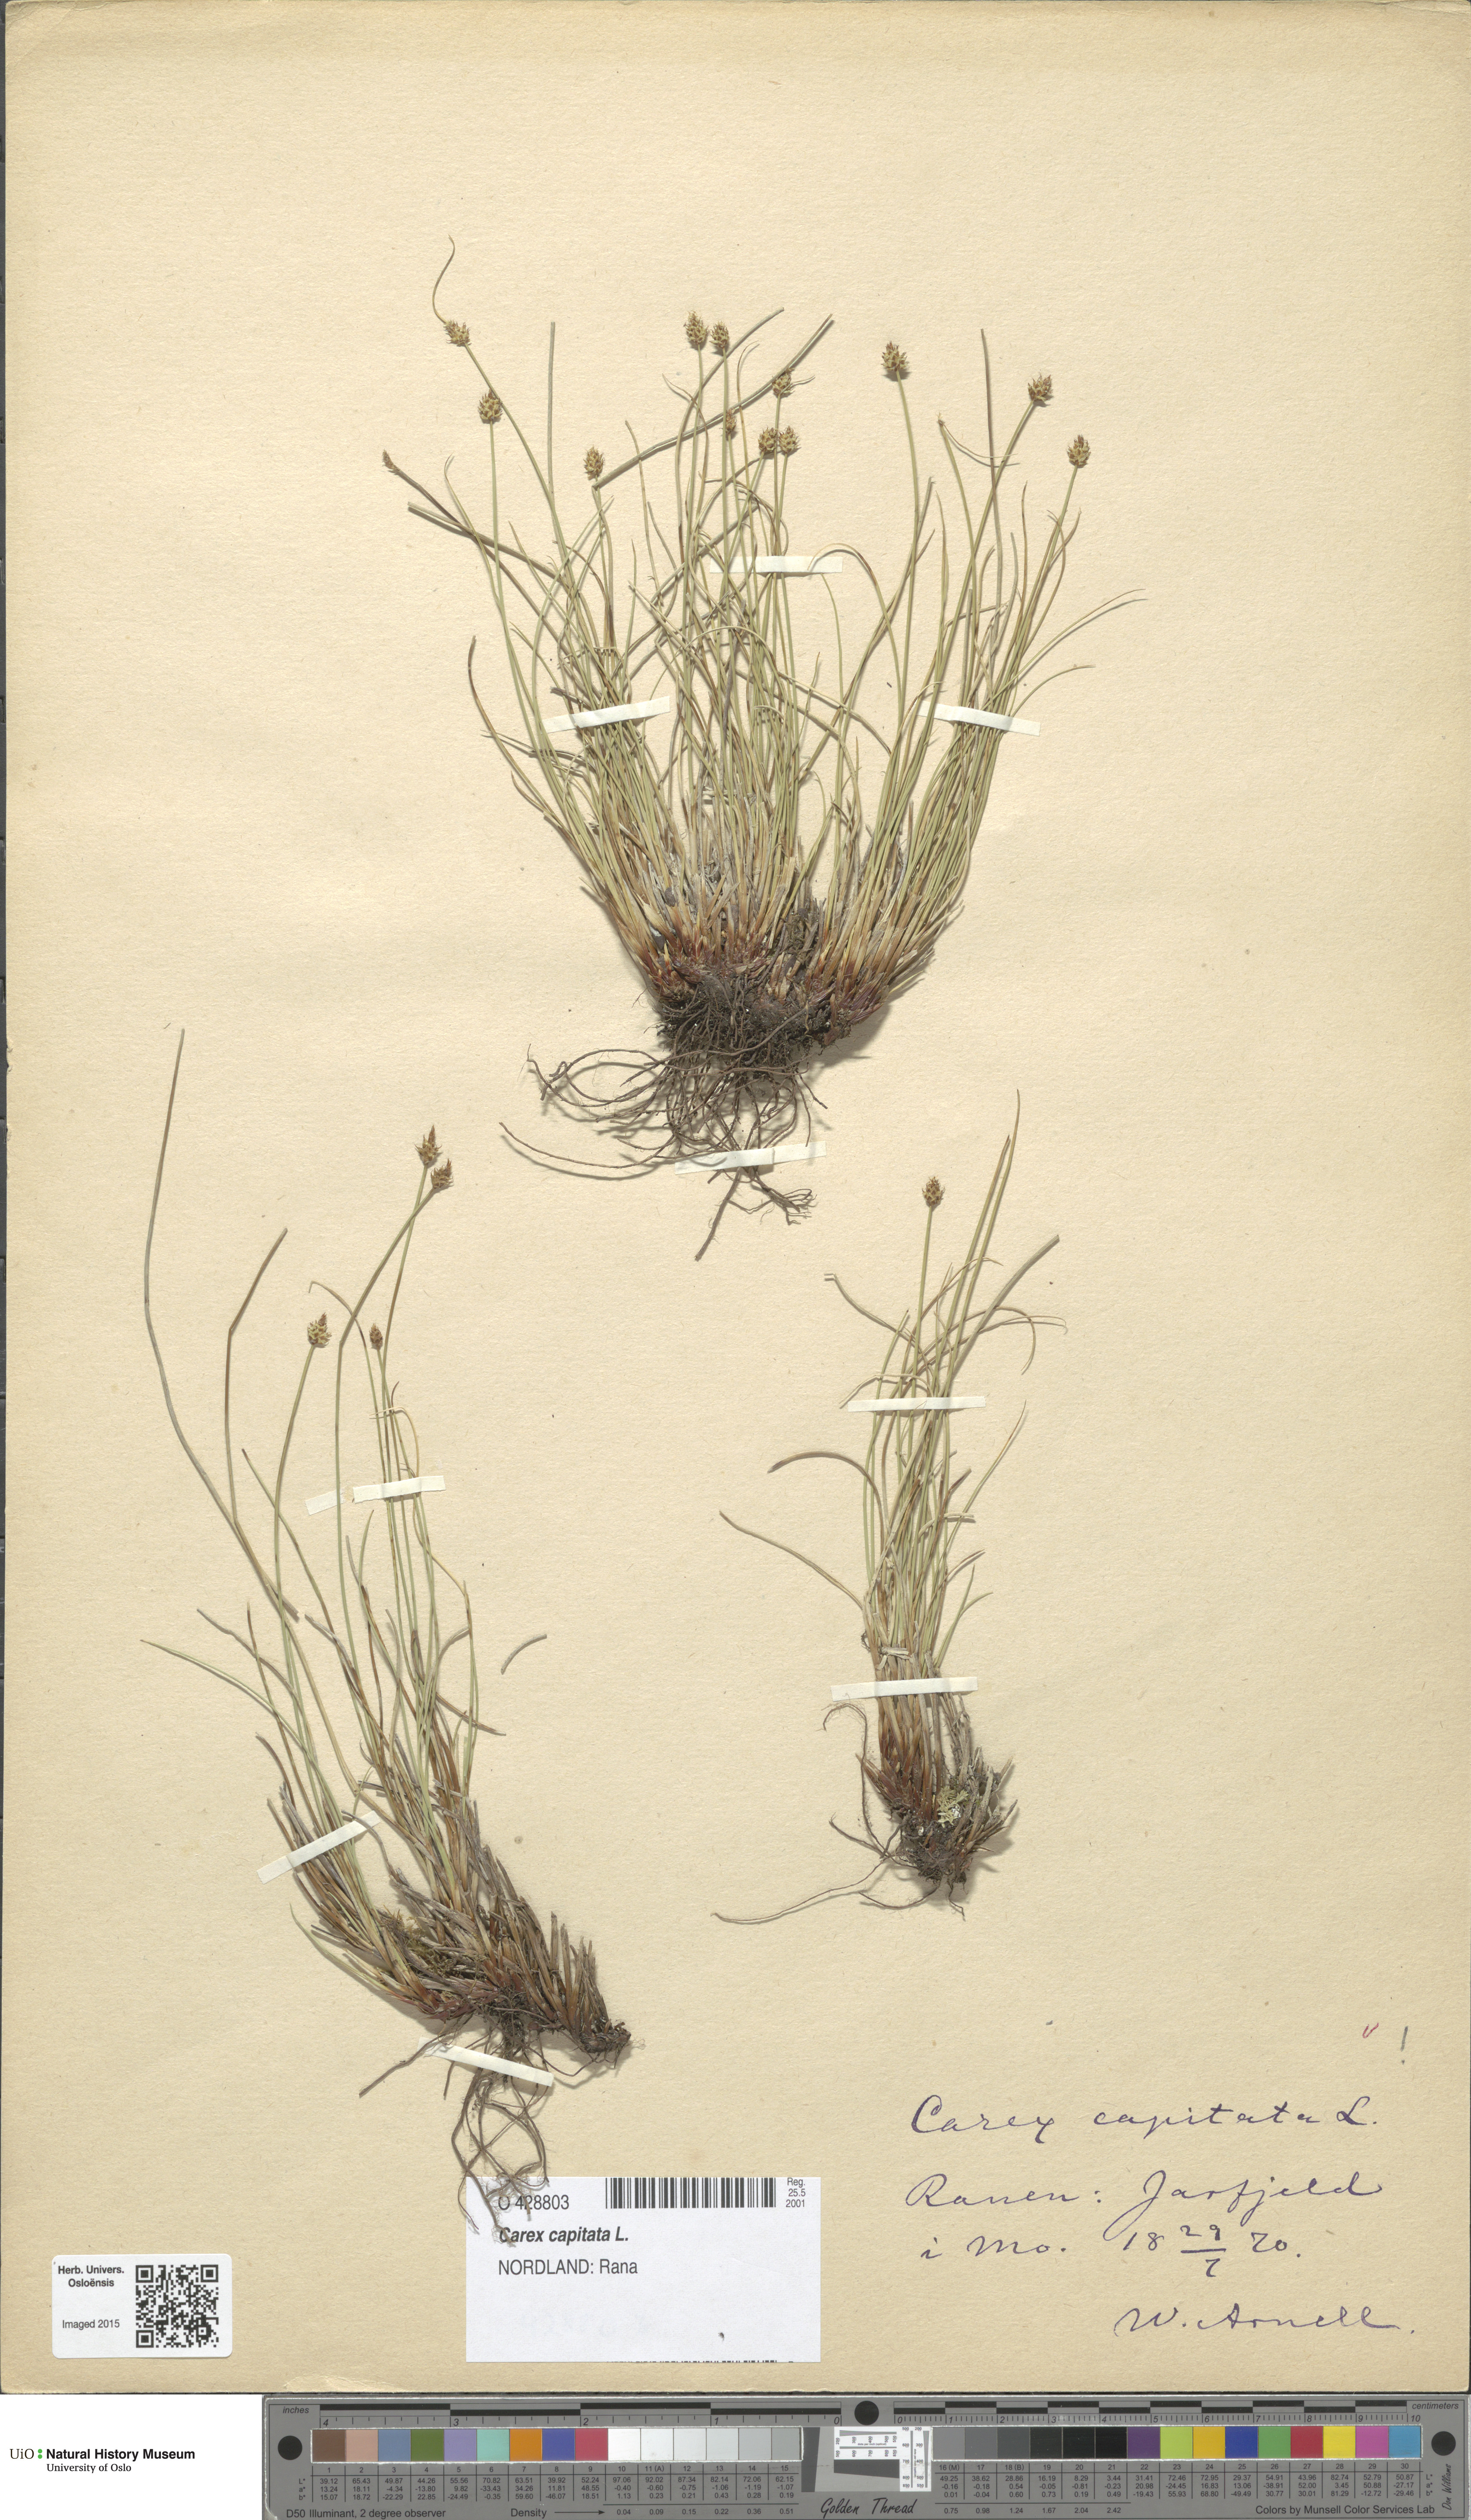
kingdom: Plantae
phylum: Tracheophyta
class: Liliopsida
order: Poales
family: Cyperaceae
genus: Carex
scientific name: Carex capitata
